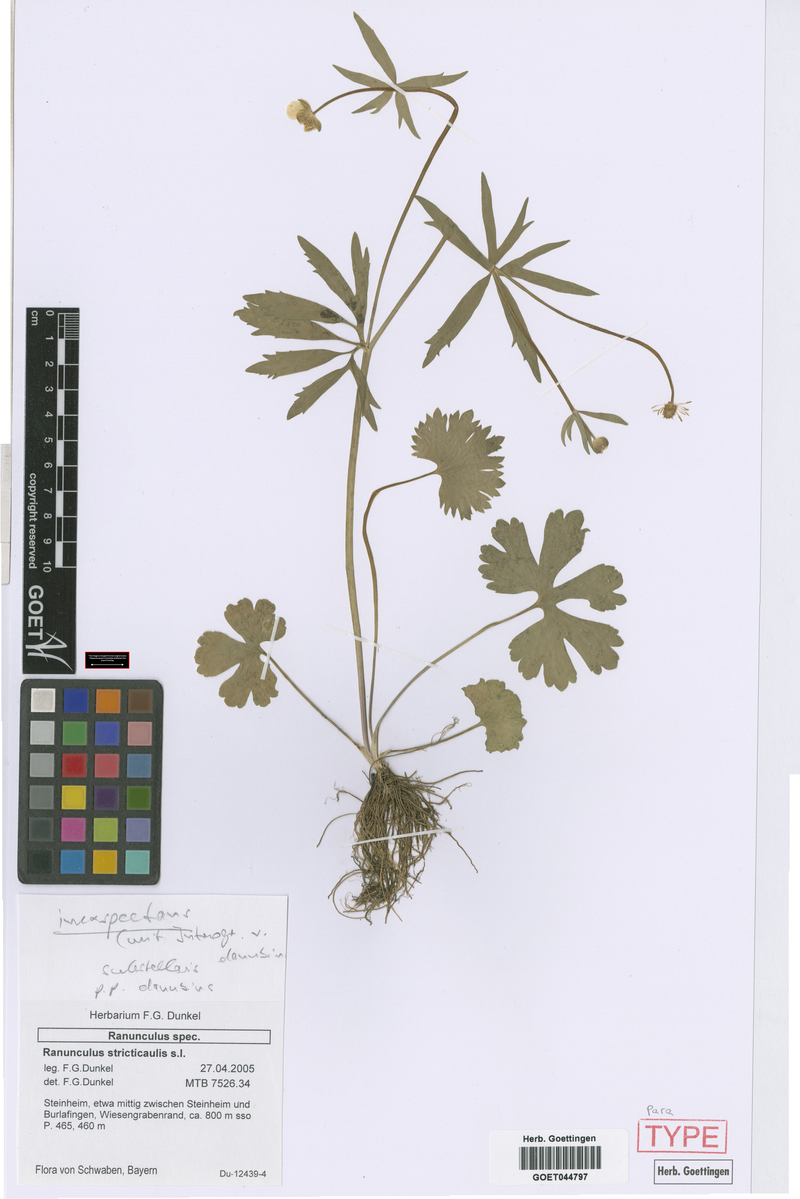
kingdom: Plantae
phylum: Tracheophyta
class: Magnoliopsida
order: Ranunculales
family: Ranunculaceae
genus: Ranunculus
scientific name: Ranunculus inexspectans
